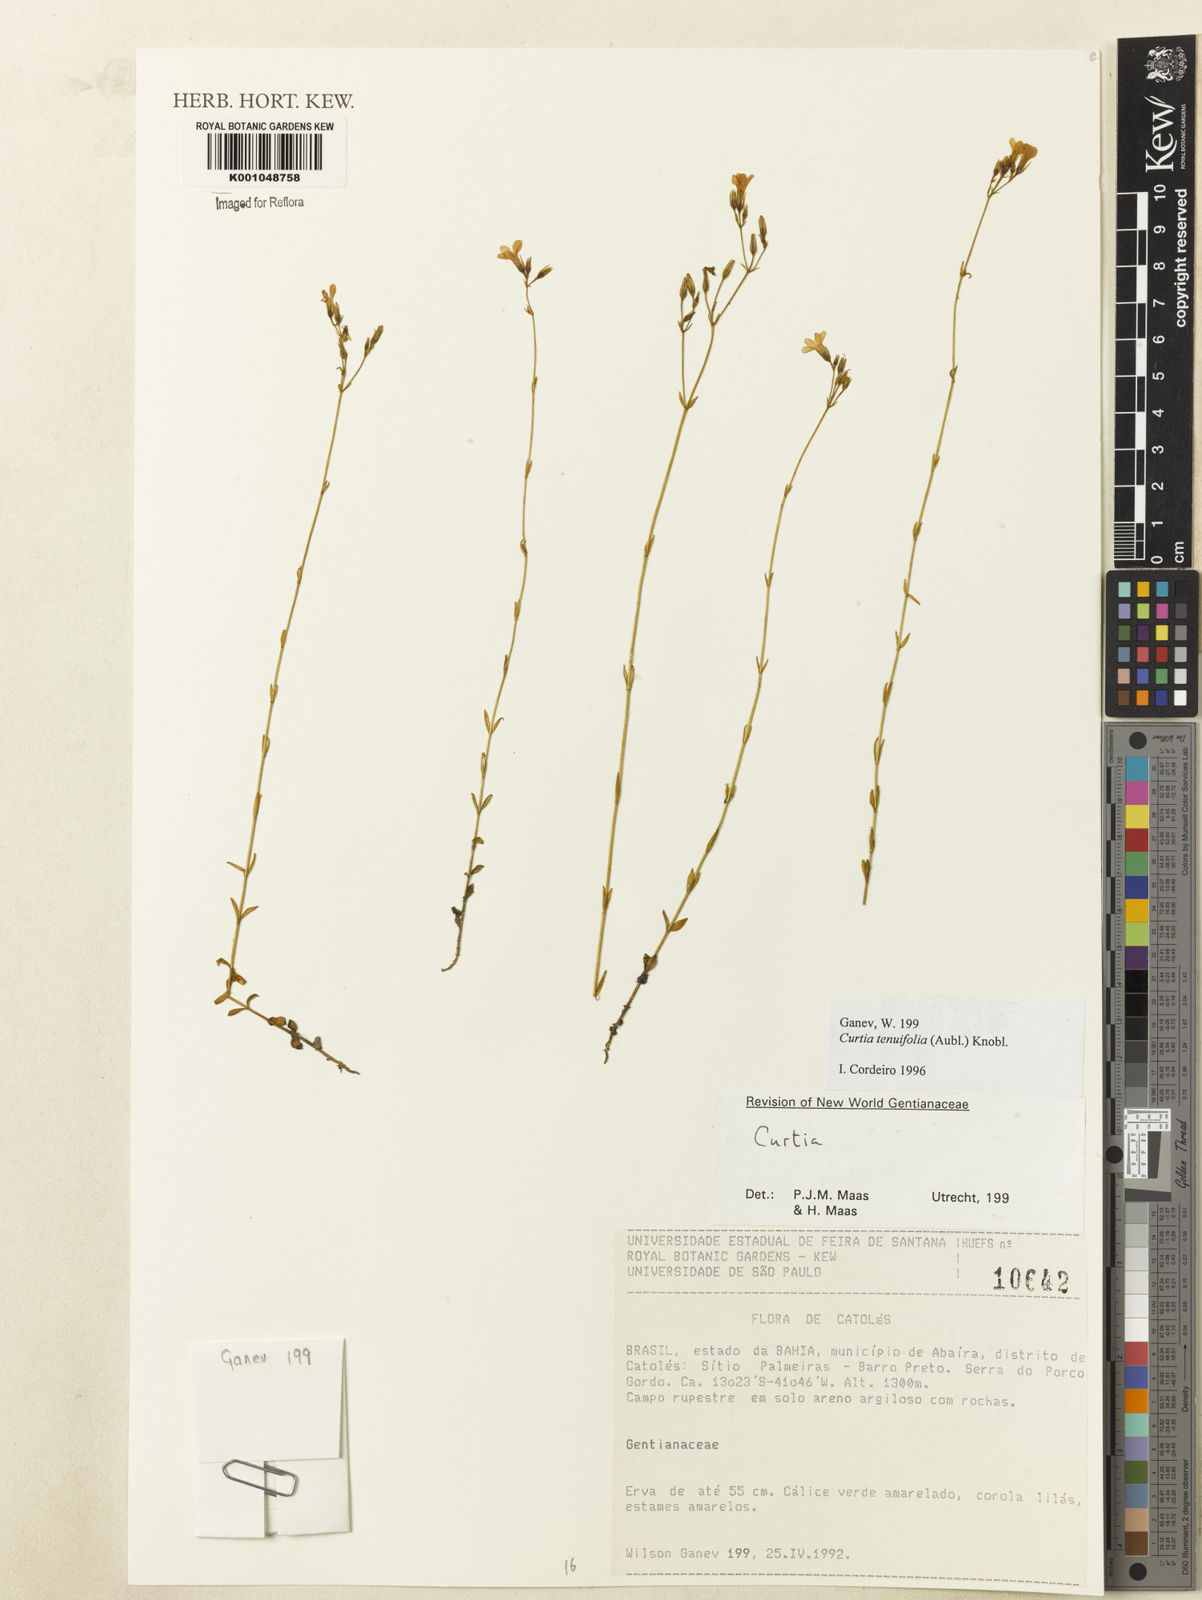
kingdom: Plantae
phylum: Tracheophyta
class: Magnoliopsida
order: Gentianales
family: Gentianaceae
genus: Curtia
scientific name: Curtia tenuifolia
